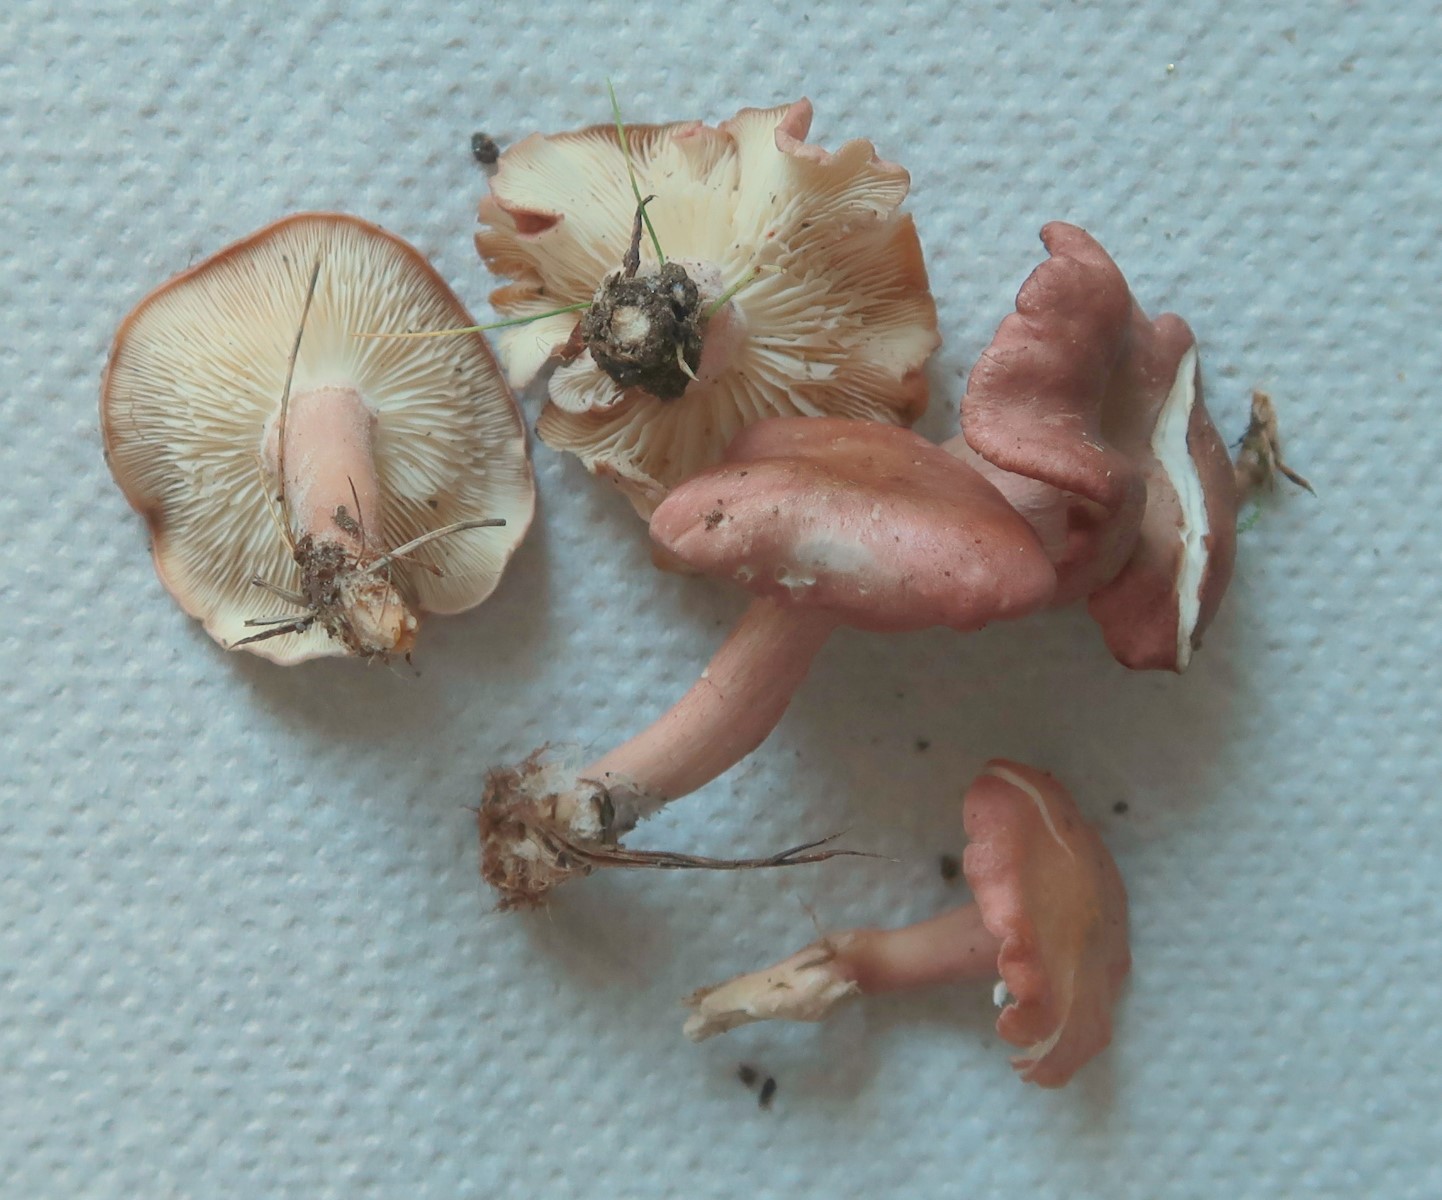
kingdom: Fungi
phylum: Basidiomycota
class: Agaricomycetes
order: Agaricales
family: Lyophyllaceae
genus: Calocybe
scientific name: Calocybe carnea
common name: rosa fagerhat
